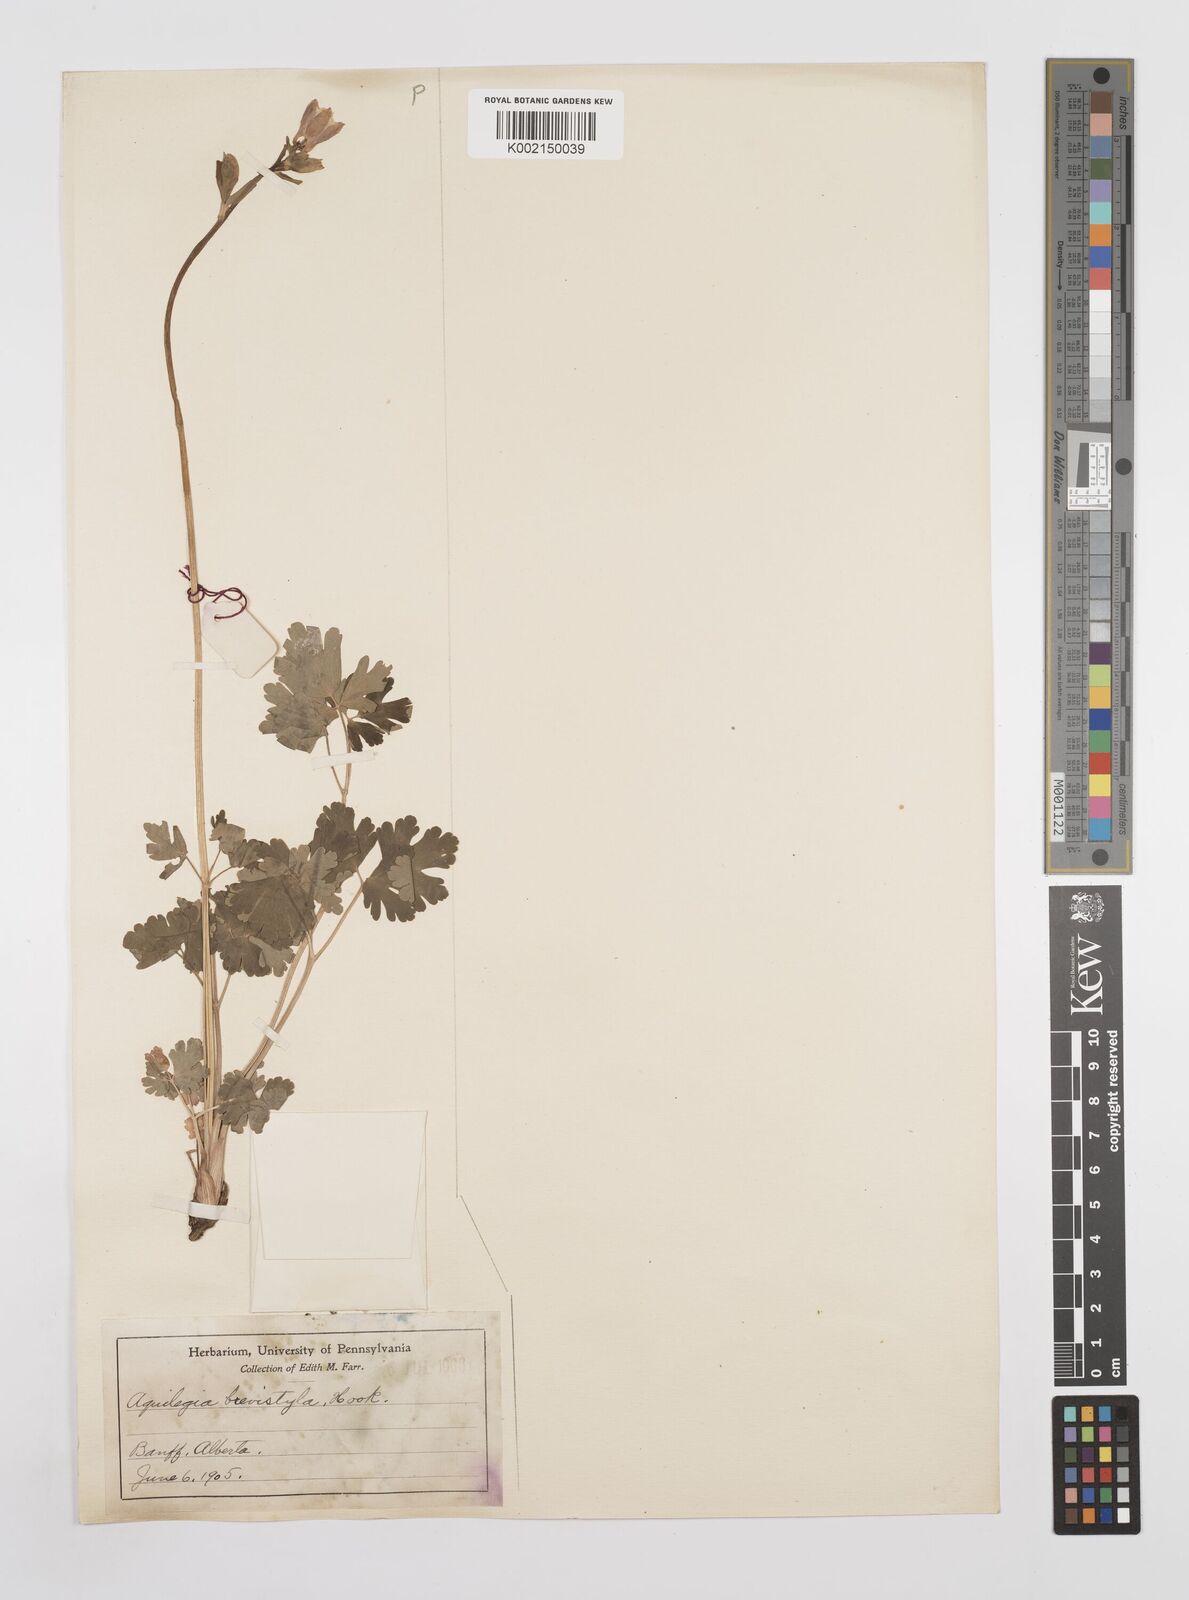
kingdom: Plantae
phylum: Tracheophyta
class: Magnoliopsida
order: Ranunculales
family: Ranunculaceae
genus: Aquilegia
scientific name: Aquilegia brevistyla
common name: Yukon columbine
